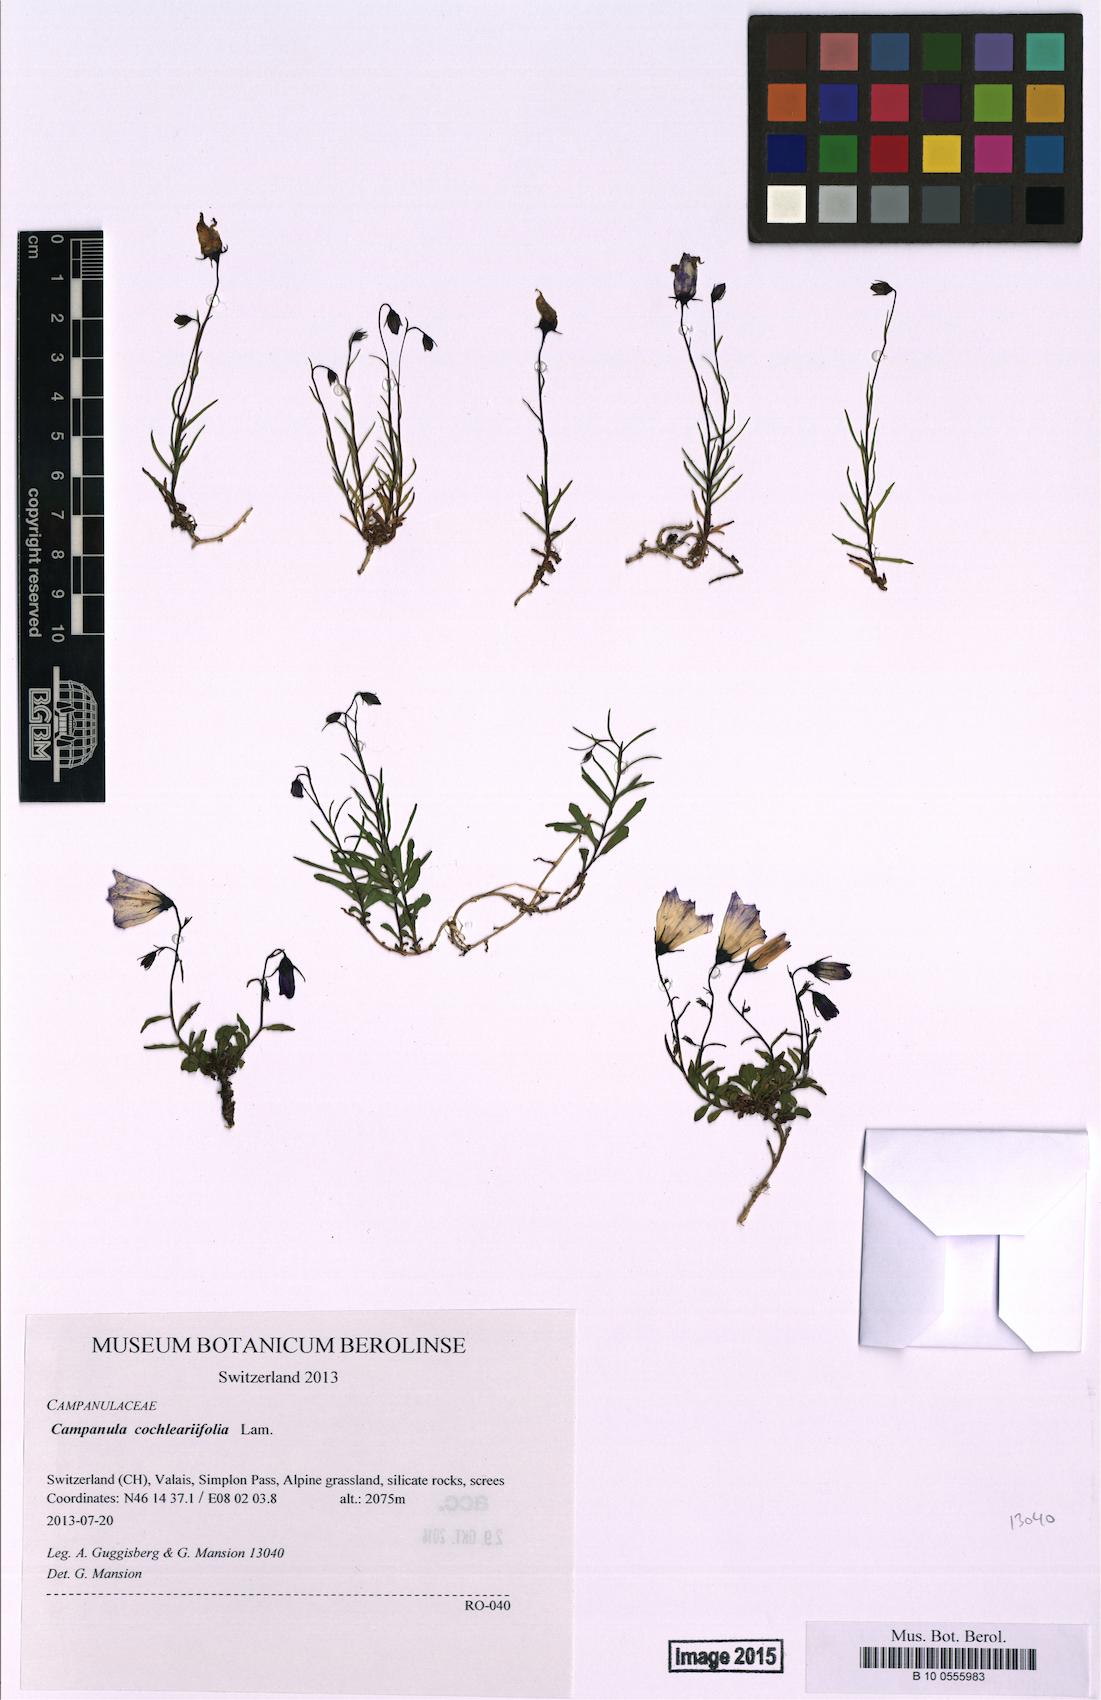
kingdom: Plantae
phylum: Tracheophyta
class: Magnoliopsida
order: Asterales
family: Campanulaceae
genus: Campanula
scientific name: Campanula cochleariifolia
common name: Fairies'-thimbles
